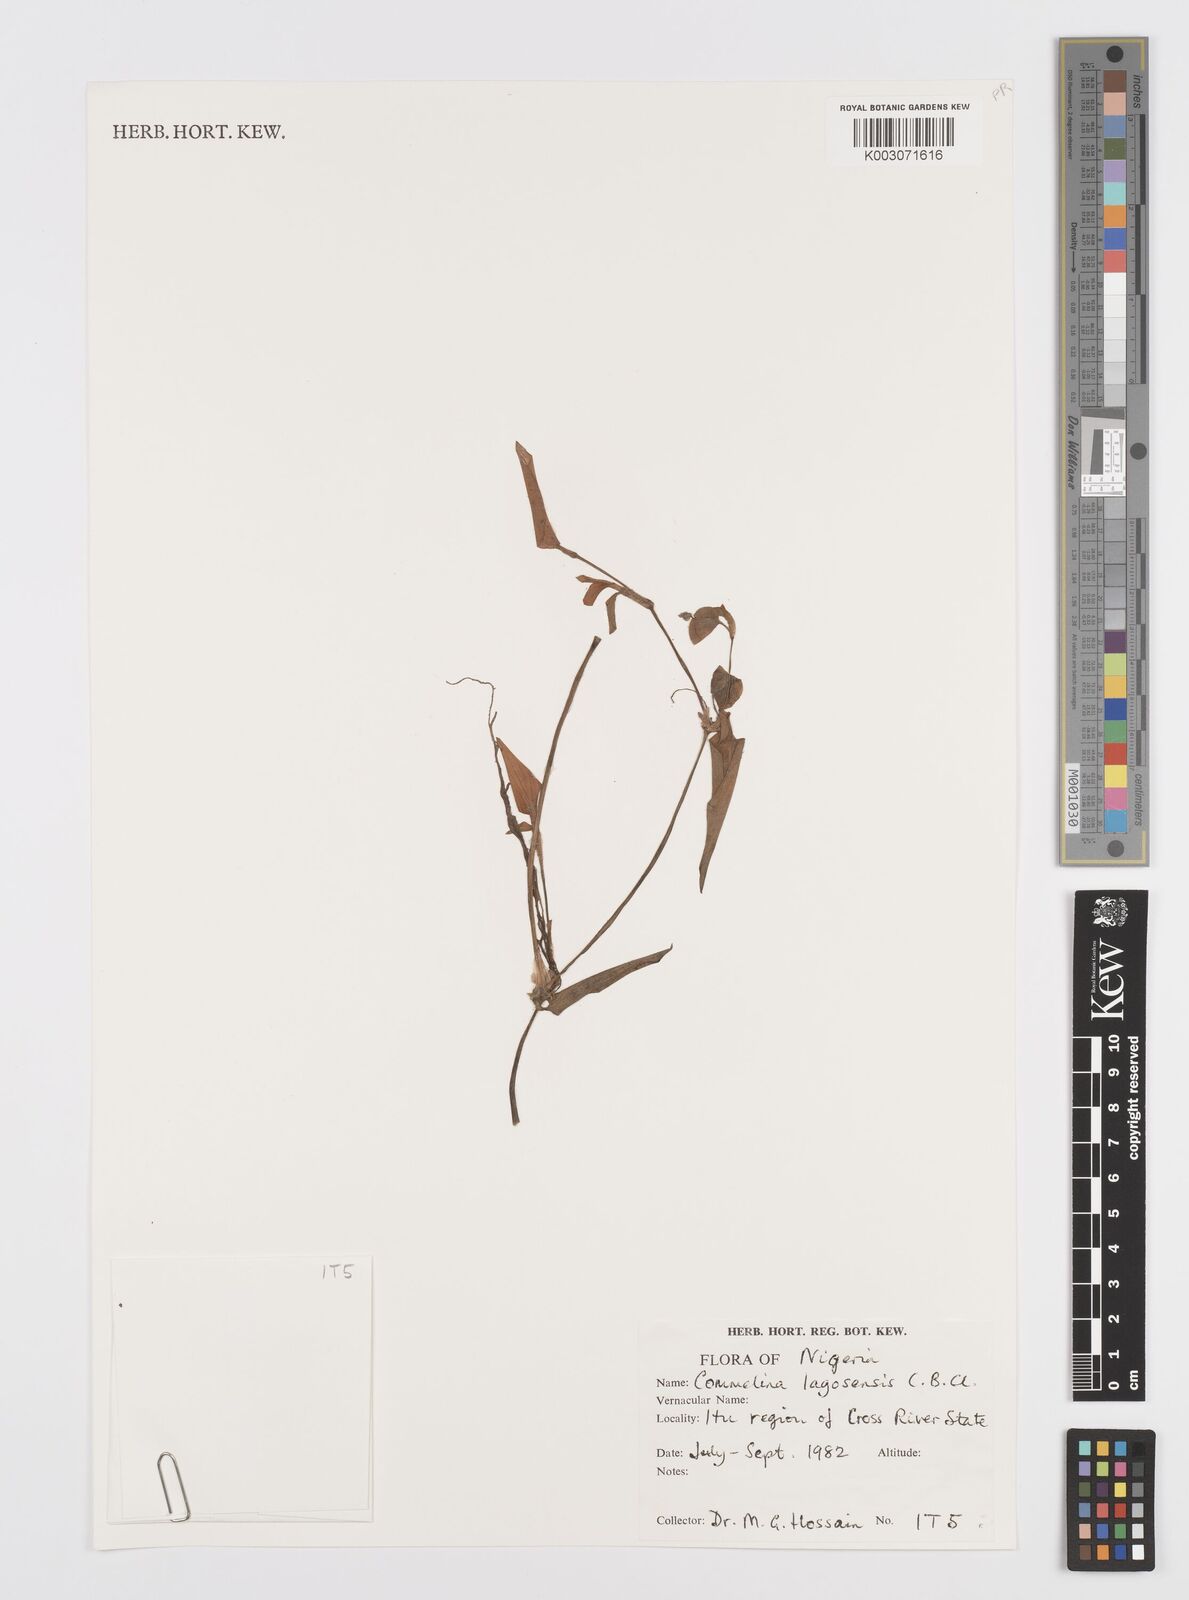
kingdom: Plantae
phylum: Tracheophyta
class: Liliopsida
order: Commelinales
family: Commelinaceae
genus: Commelina
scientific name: Commelina bracteosa
